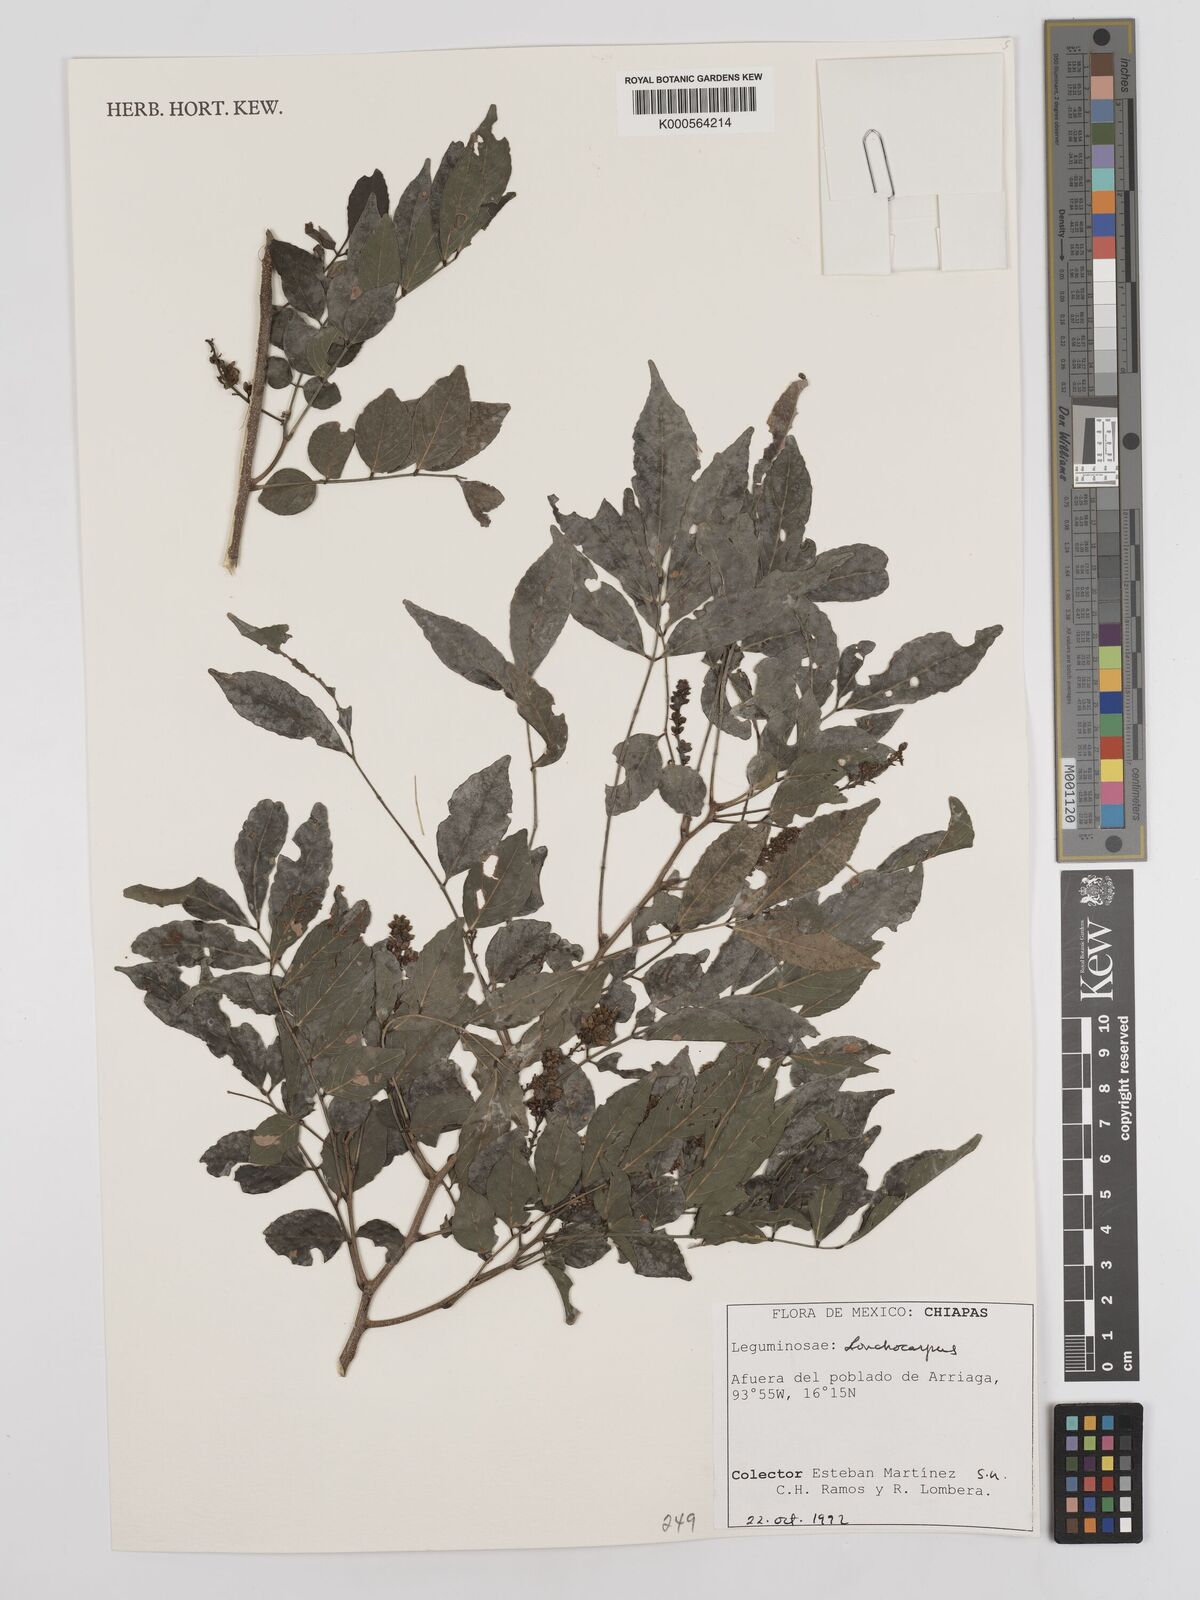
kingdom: Plantae
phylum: Tracheophyta
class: Magnoliopsida
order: Fabales
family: Fabaceae
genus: Lonchocarpus
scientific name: Lonchocarpus
